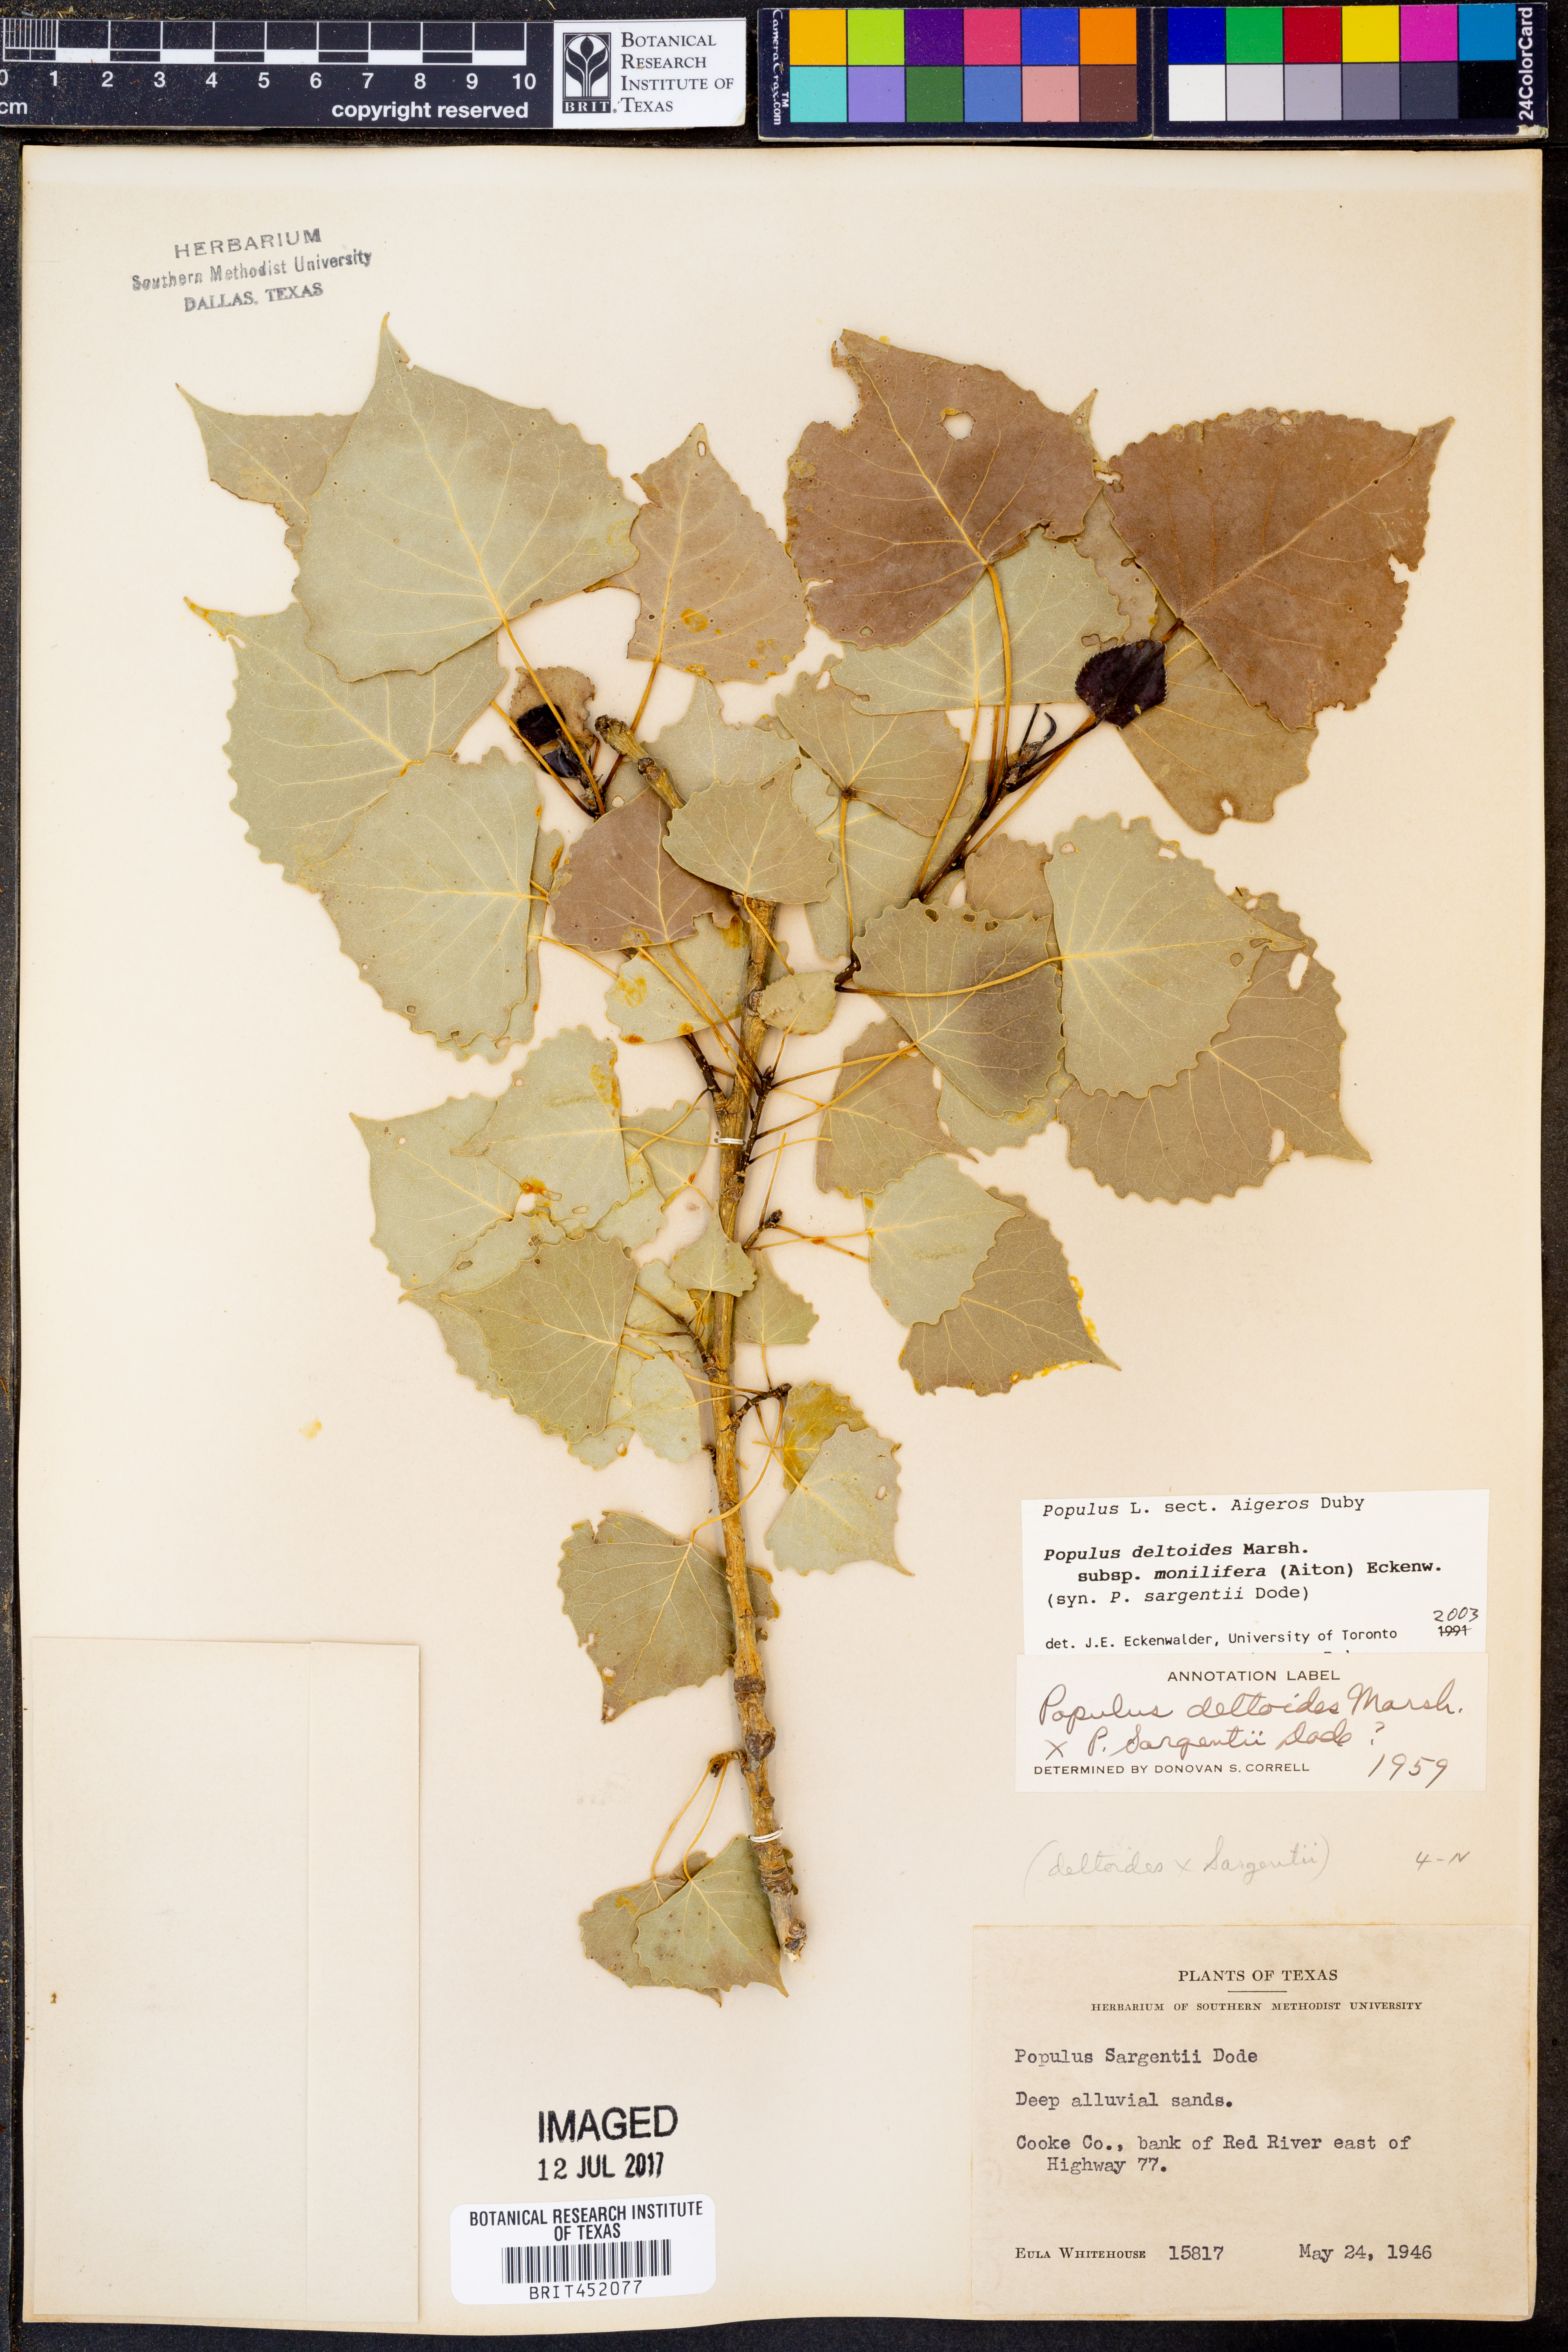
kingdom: Plantae
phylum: Tracheophyta
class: Magnoliopsida
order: Malpighiales
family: Salicaceae
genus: Populus
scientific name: Populus deltoides
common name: Eastern cottonwood
